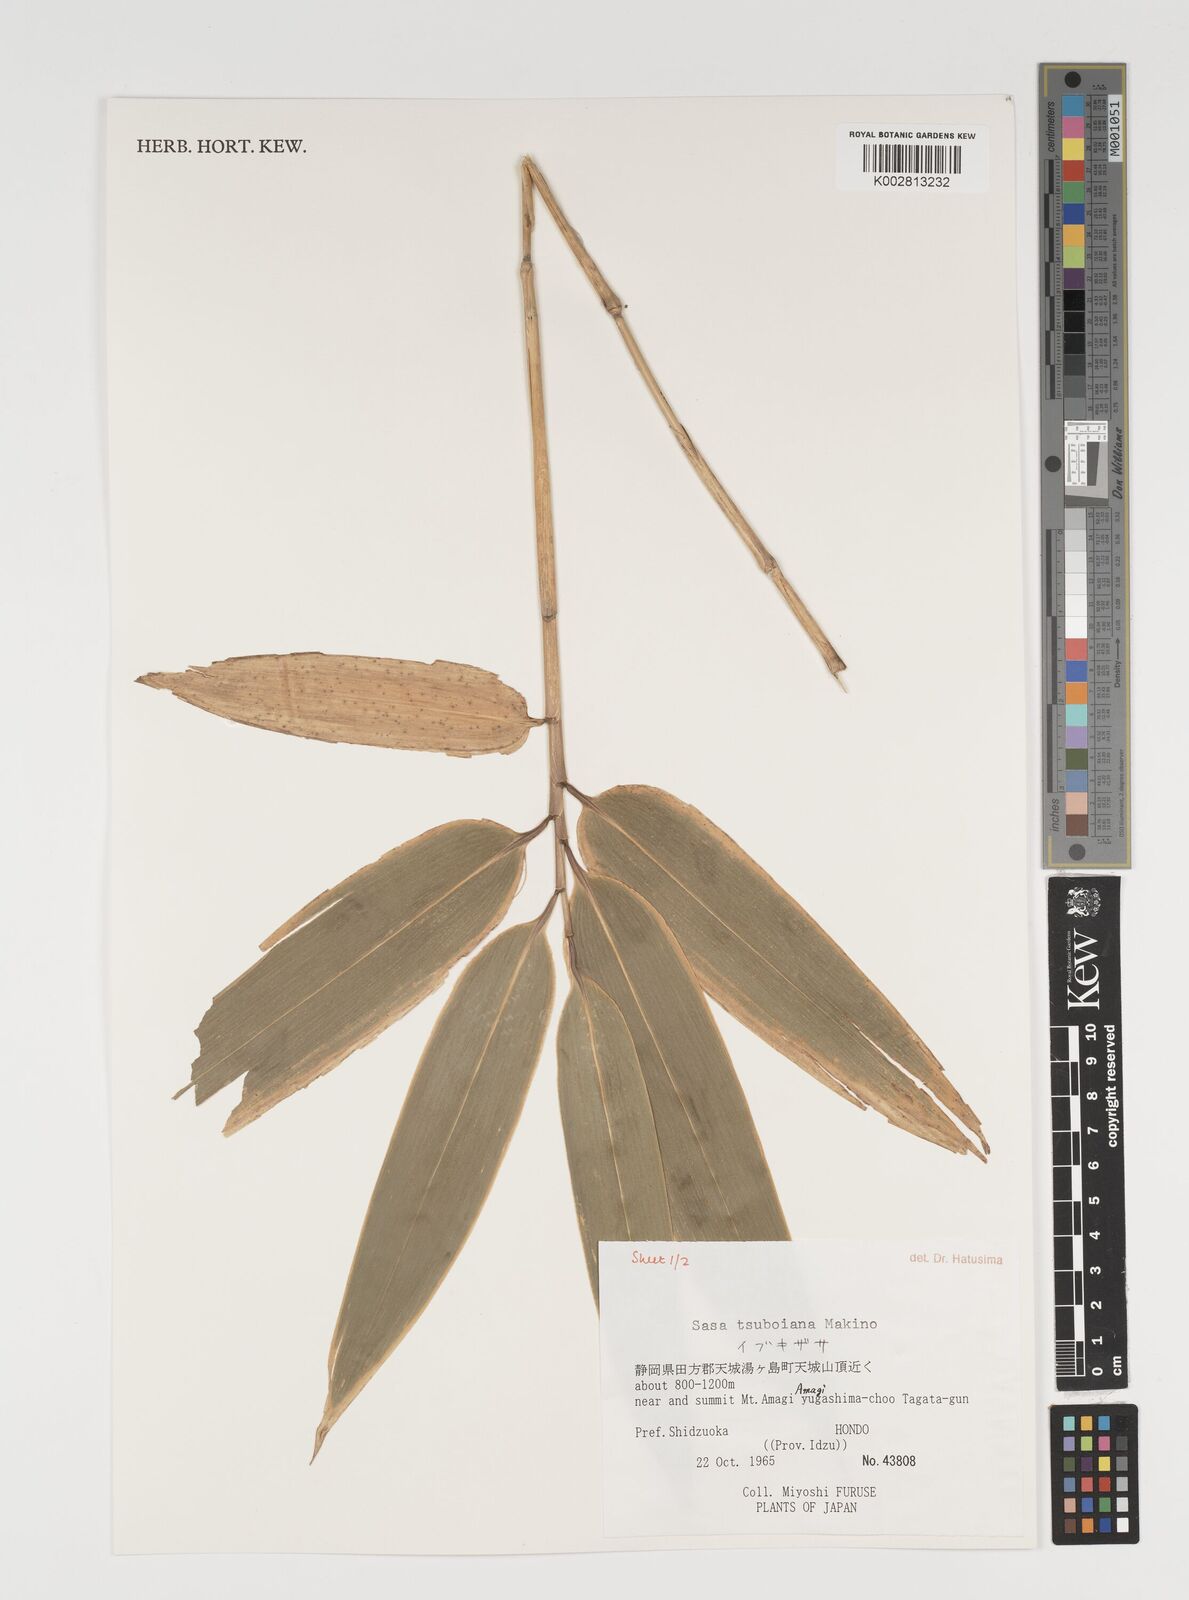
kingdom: Plantae
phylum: Tracheophyta
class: Liliopsida
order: Poales
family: Poaceae
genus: Sasa
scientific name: Sasa tsuboiana
